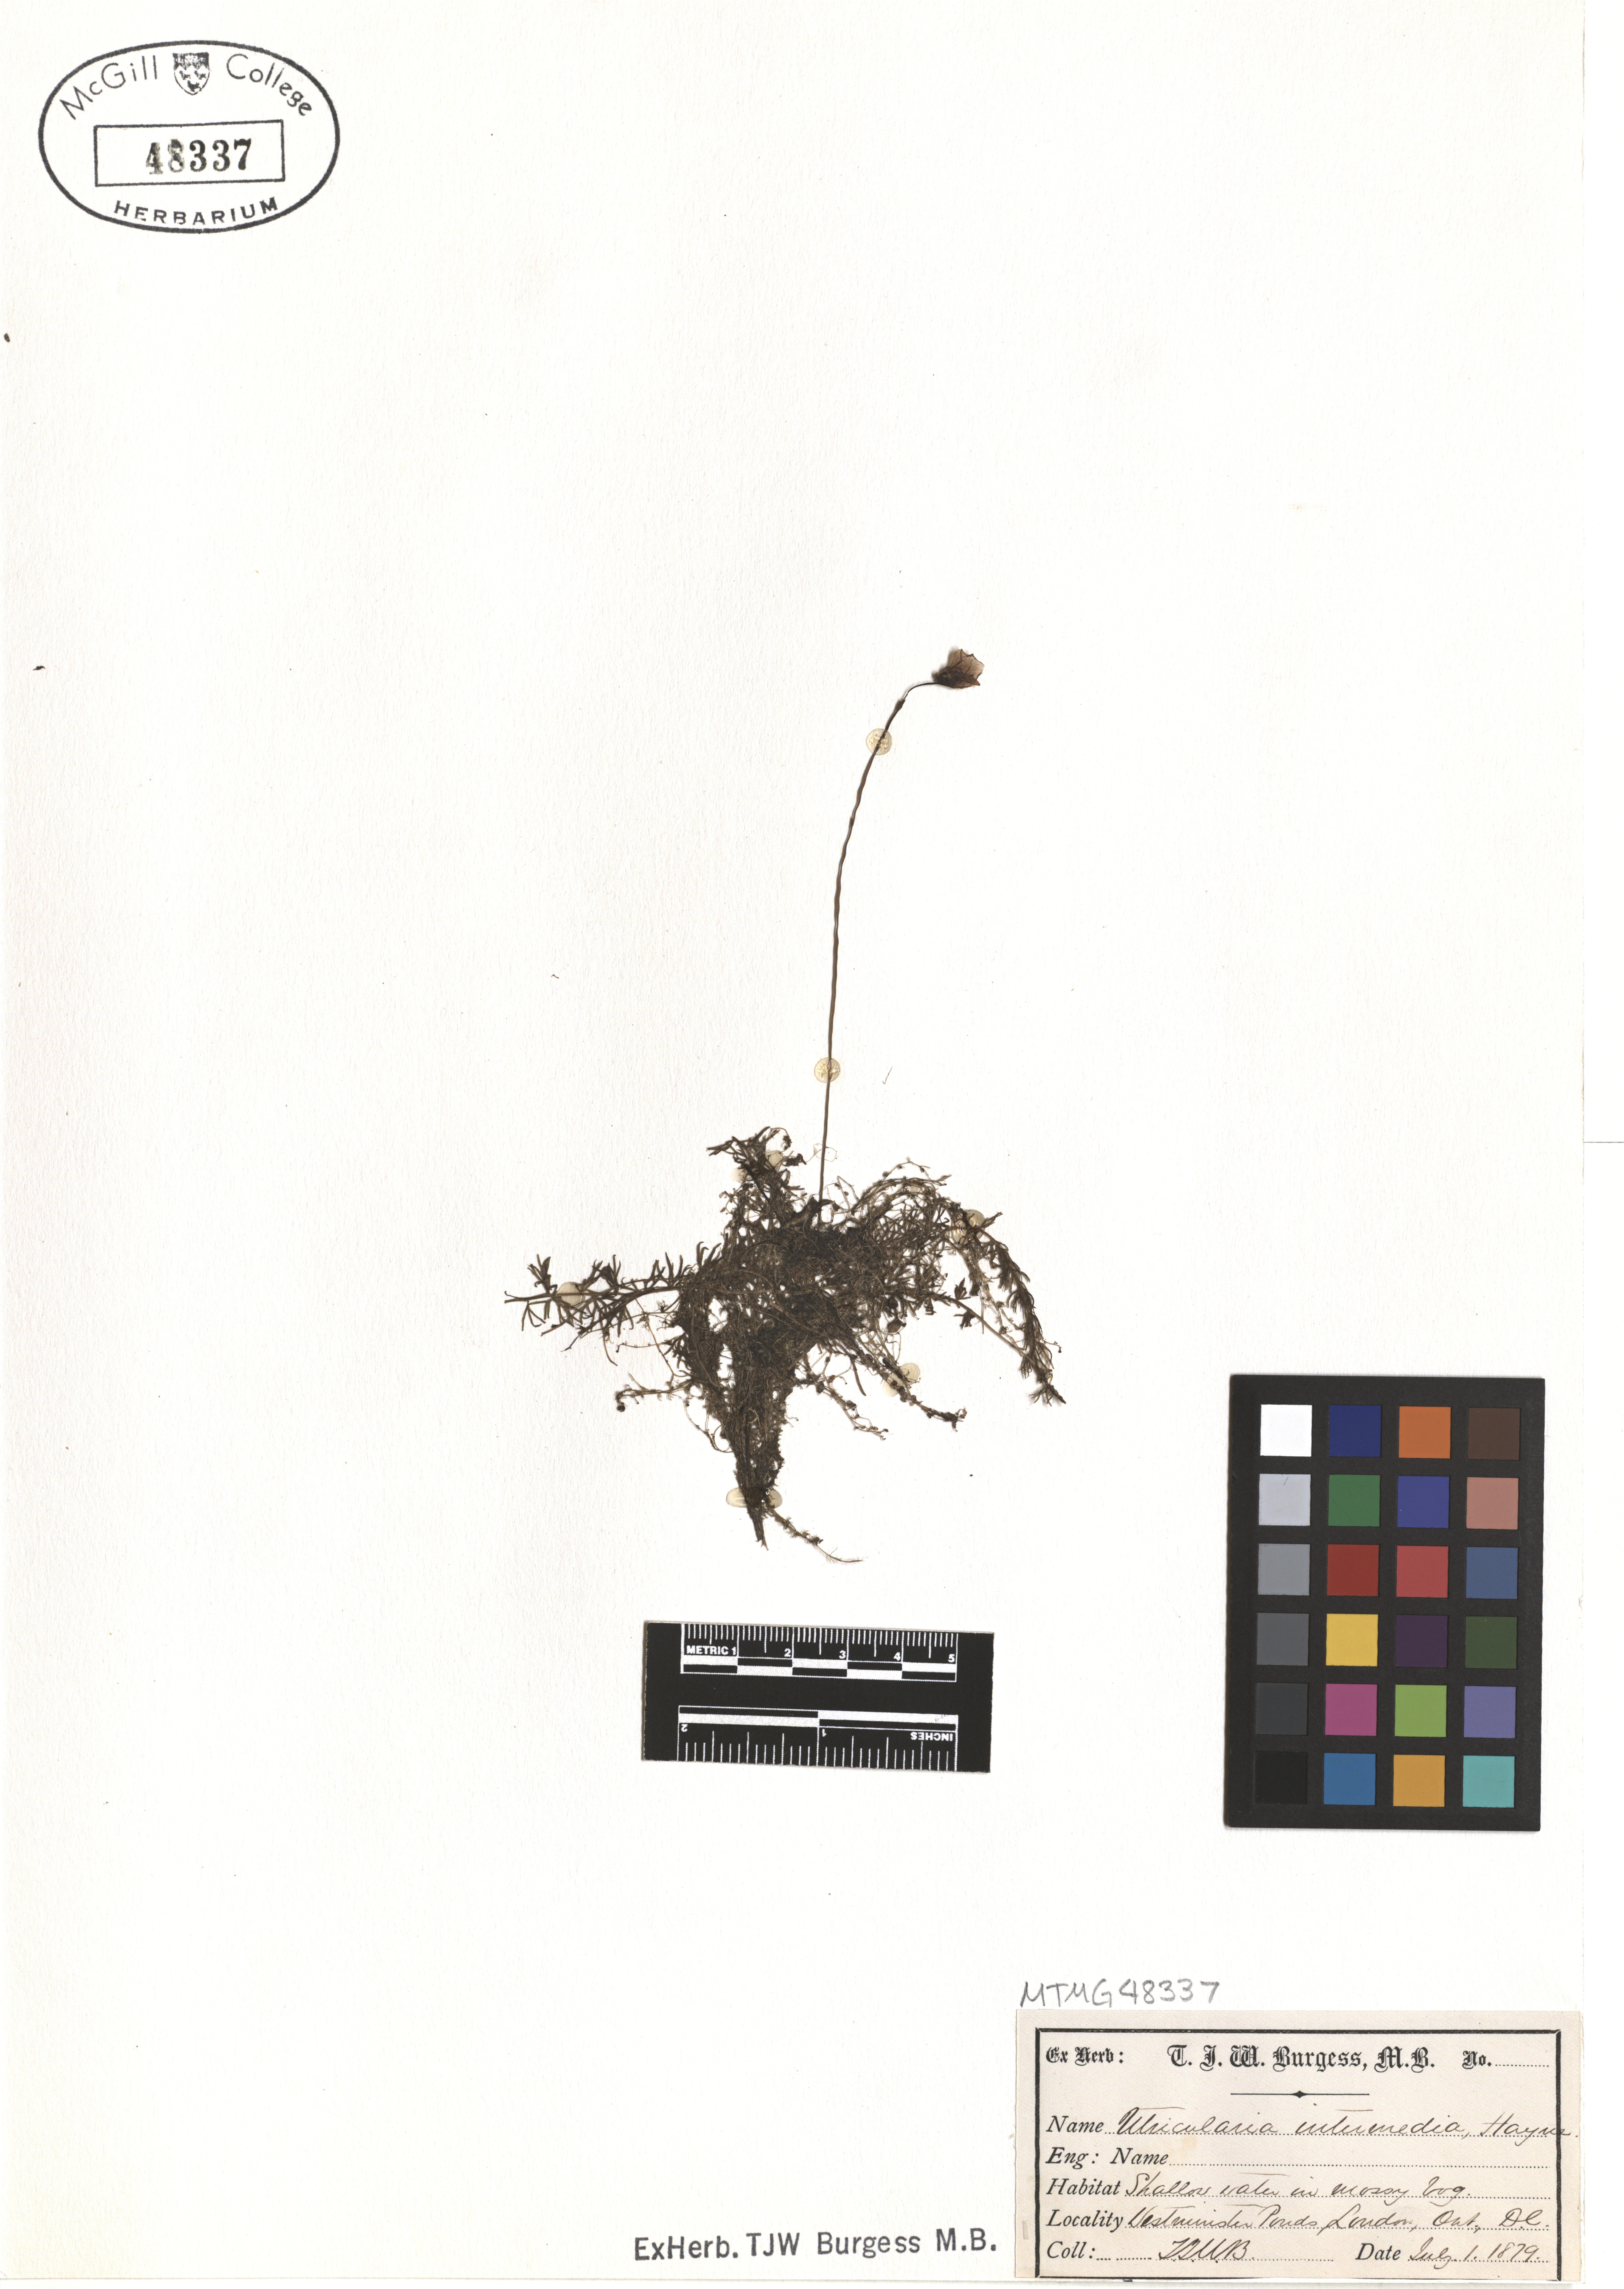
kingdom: Plantae
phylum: Tracheophyta
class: Magnoliopsida
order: Lamiales
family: Lentibulariaceae
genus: Utricularia
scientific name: Utricularia intermedia
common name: Intermediate bladderwort
